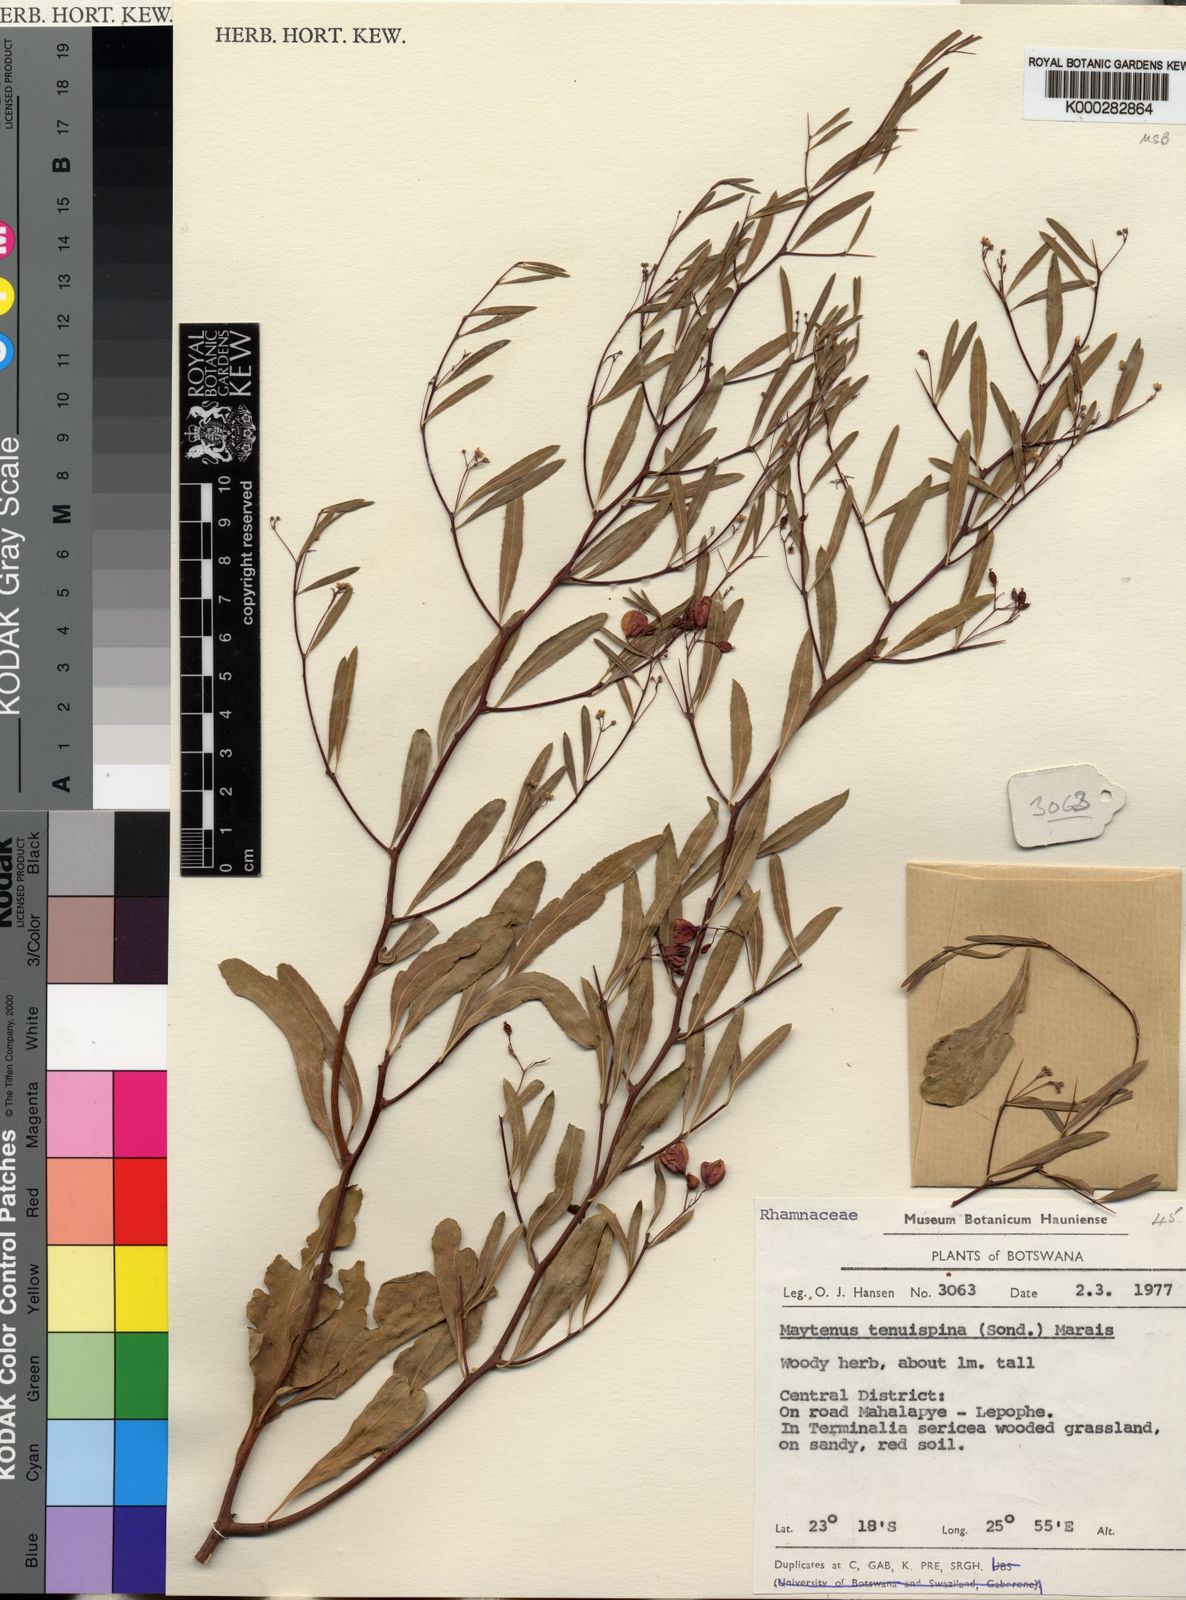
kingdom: Plantae
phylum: Tracheophyta
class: Magnoliopsida
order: Celastrales
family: Celastraceae
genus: Gymnosporia
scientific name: Gymnosporia tenuispina
